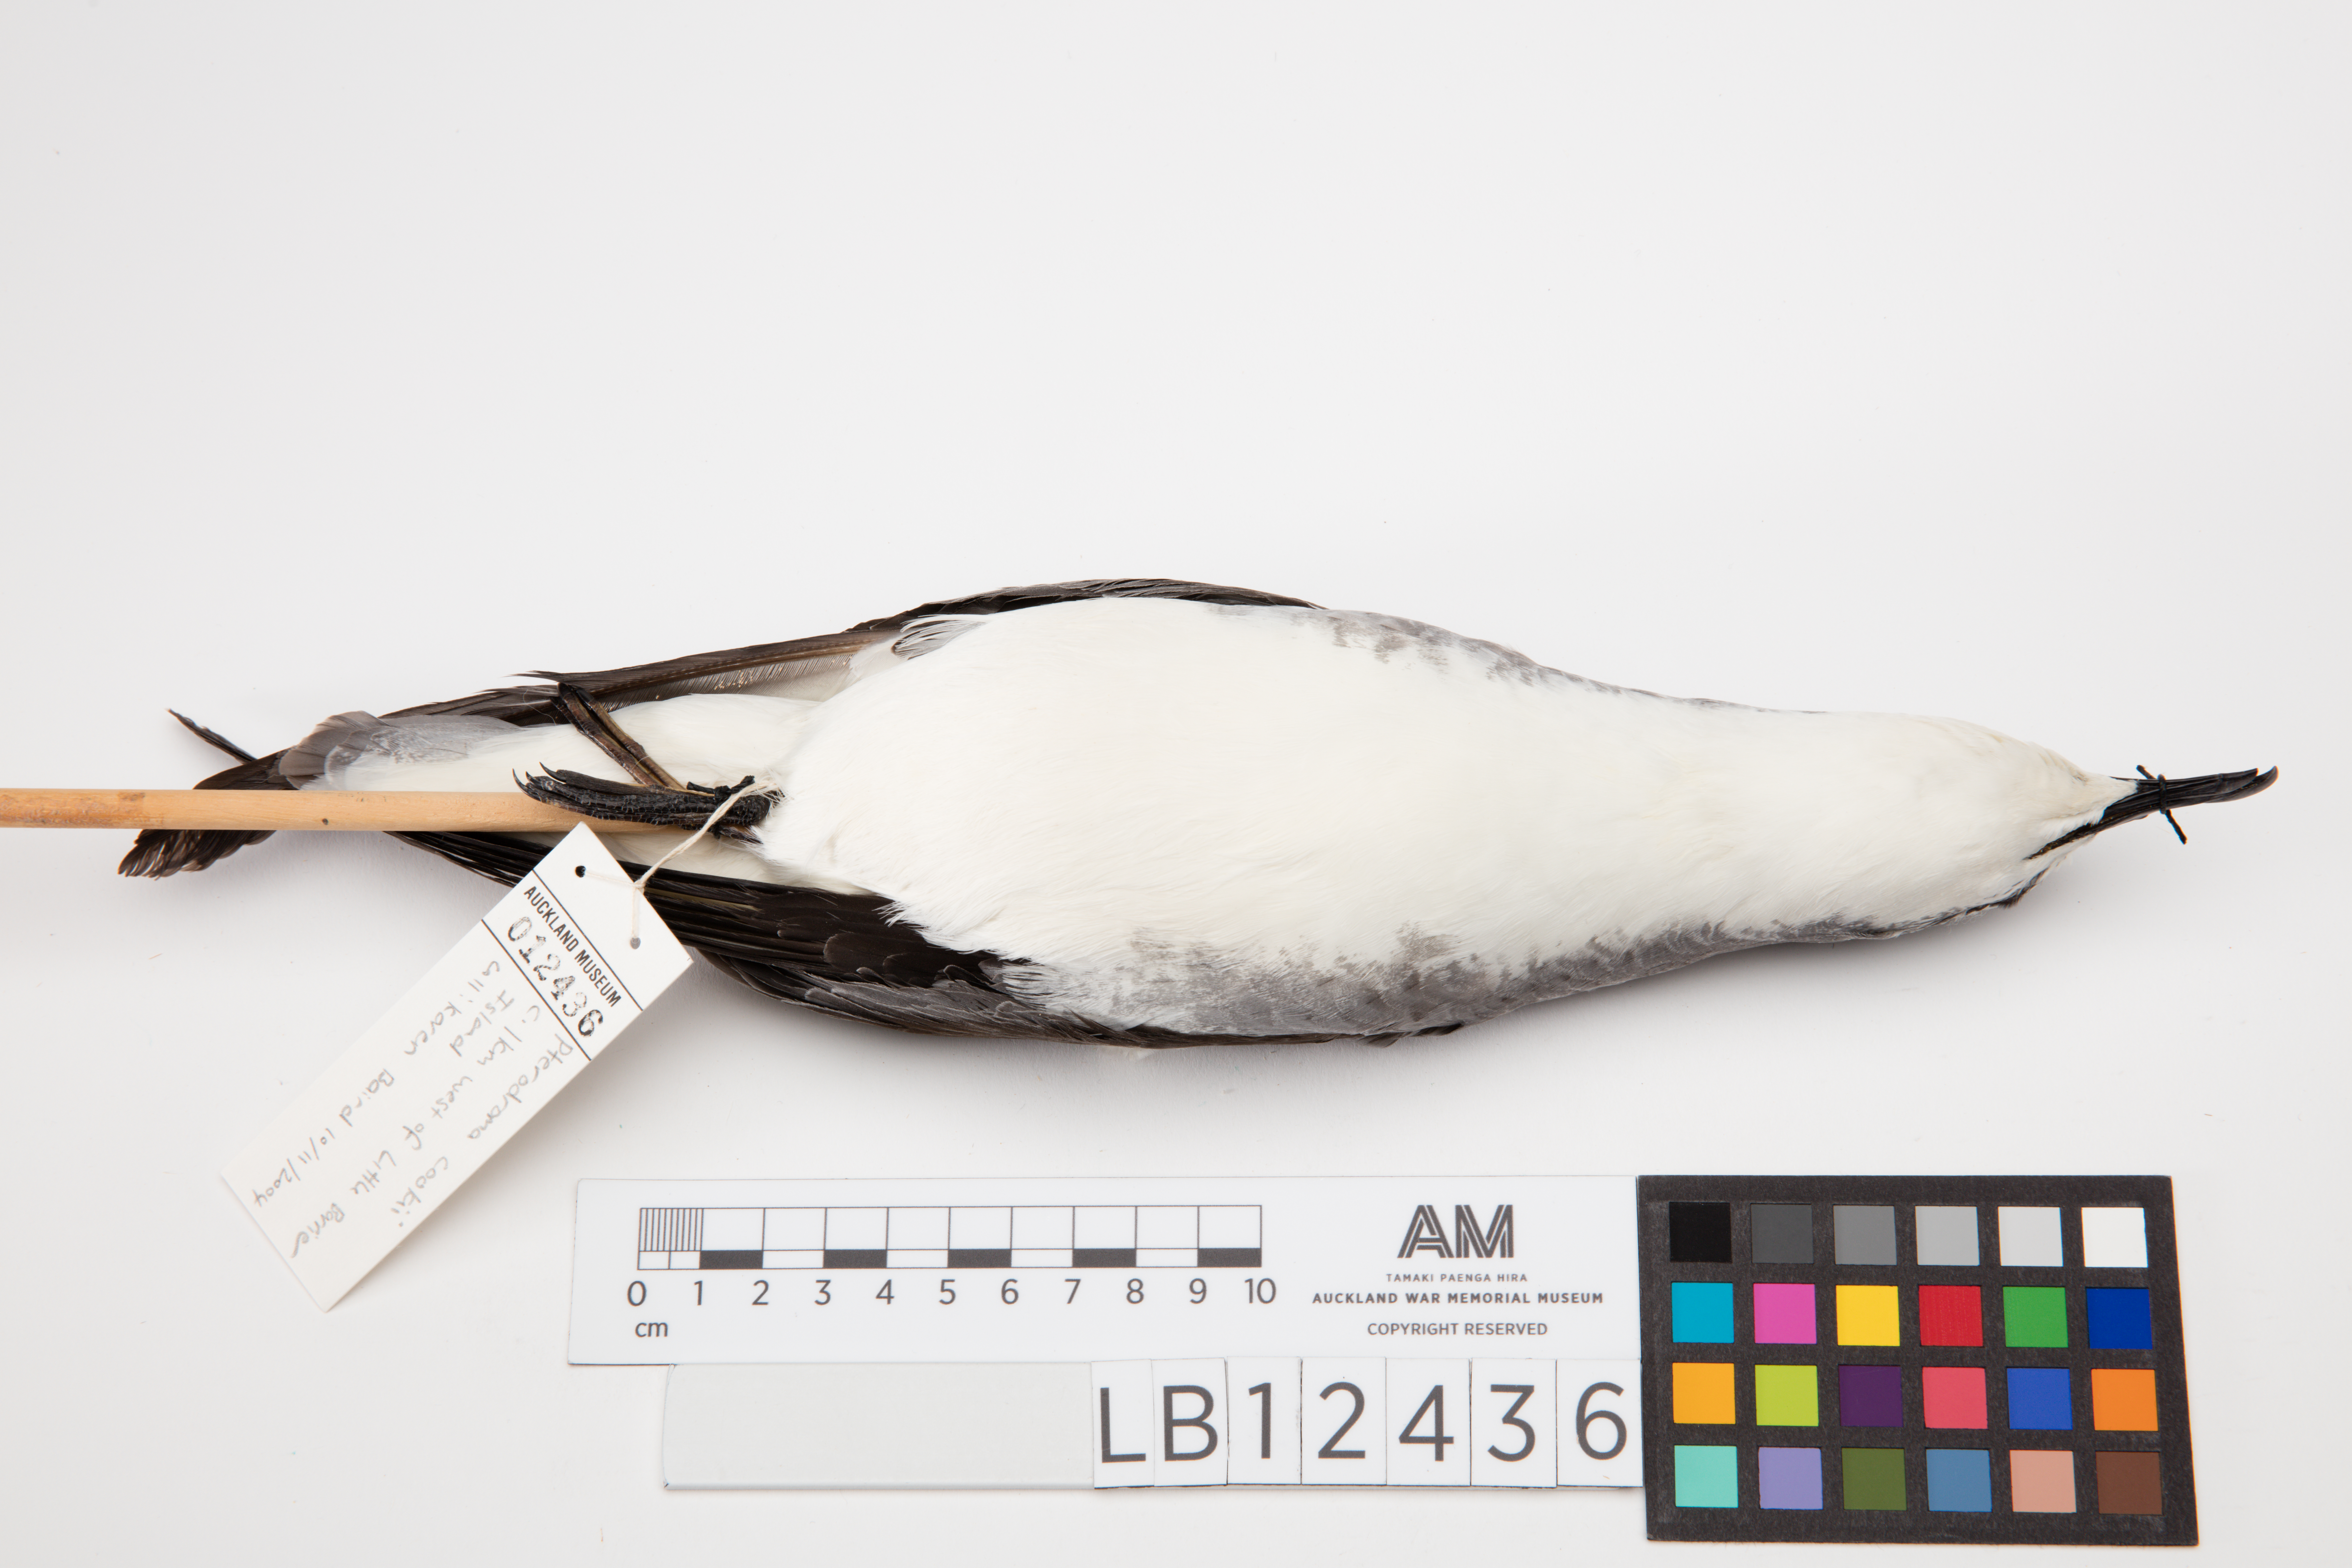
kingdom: Animalia
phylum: Chordata
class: Aves
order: Procellariiformes
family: Procellariidae
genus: Pterodroma
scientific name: Pterodroma cookii
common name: Cook's petrel
